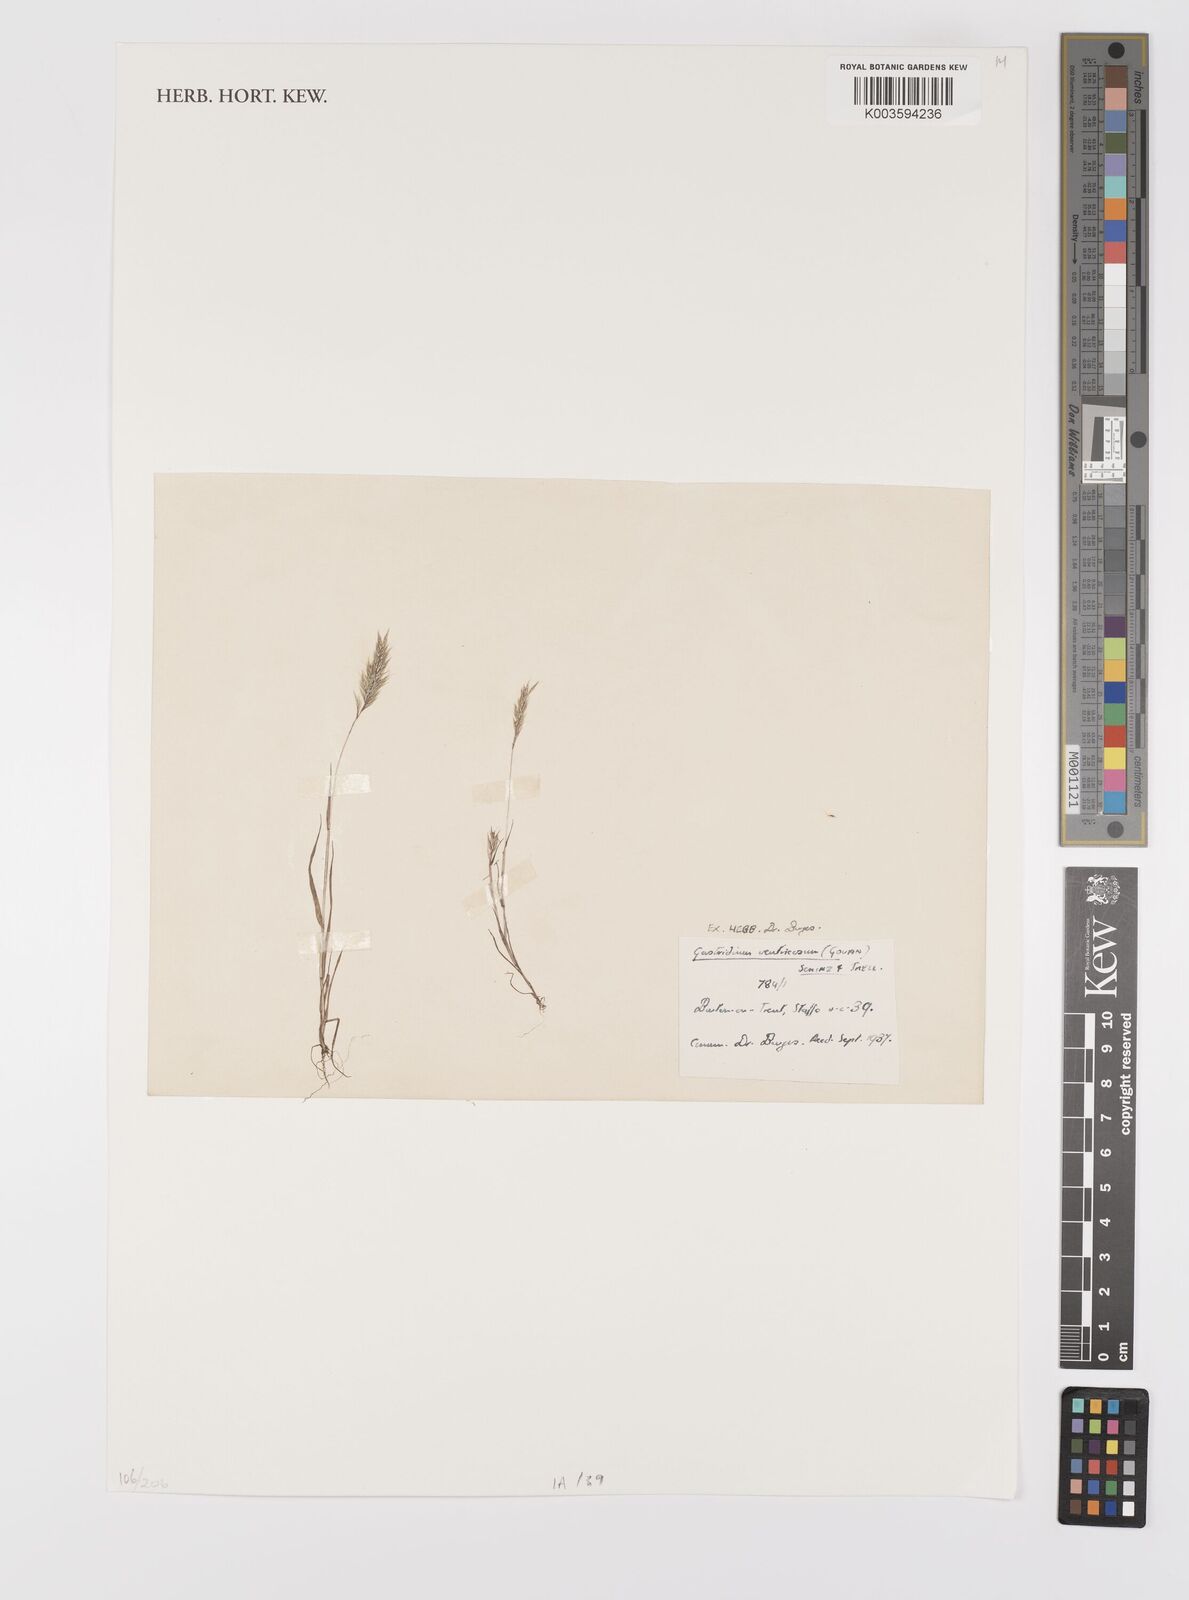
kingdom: Plantae
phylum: Tracheophyta
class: Liliopsida
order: Poales
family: Poaceae
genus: Gastridium
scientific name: Gastridium ventricosum
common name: Nit-grass
